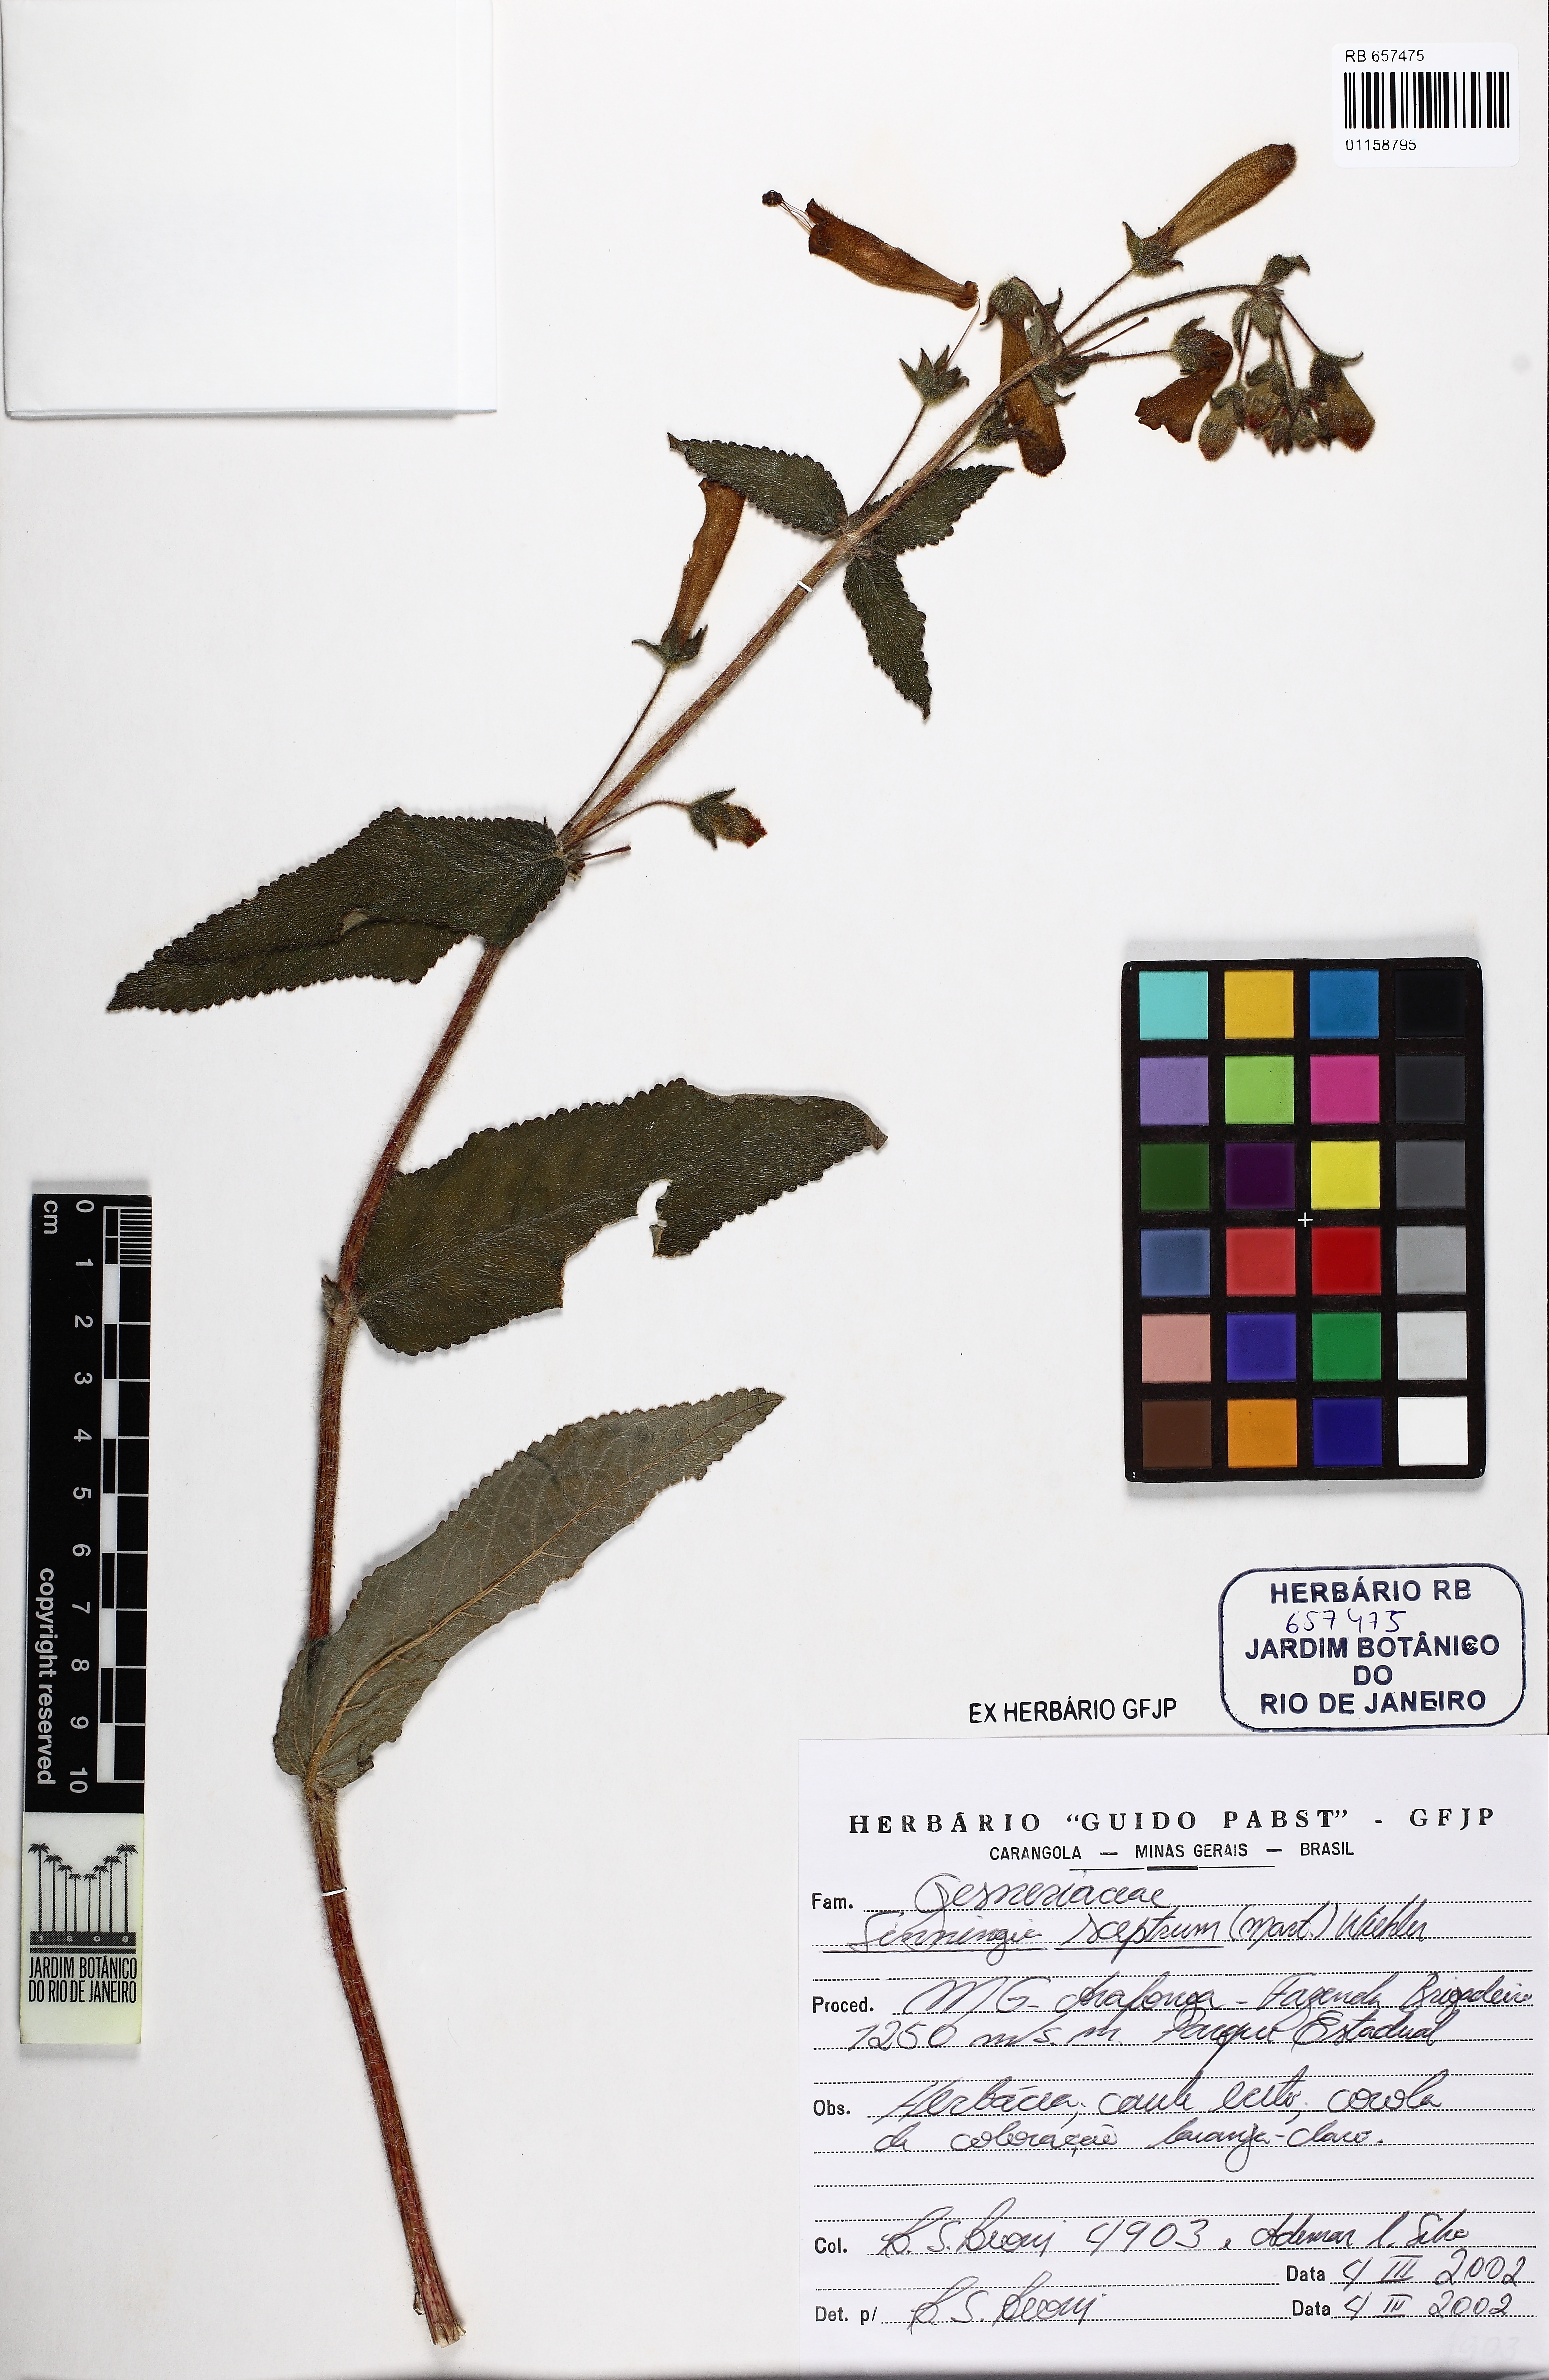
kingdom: Plantae
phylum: Tracheophyta
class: Magnoliopsida
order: Lamiales
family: Gesneriaceae
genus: Sinningia
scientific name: Sinningia sceptrum
